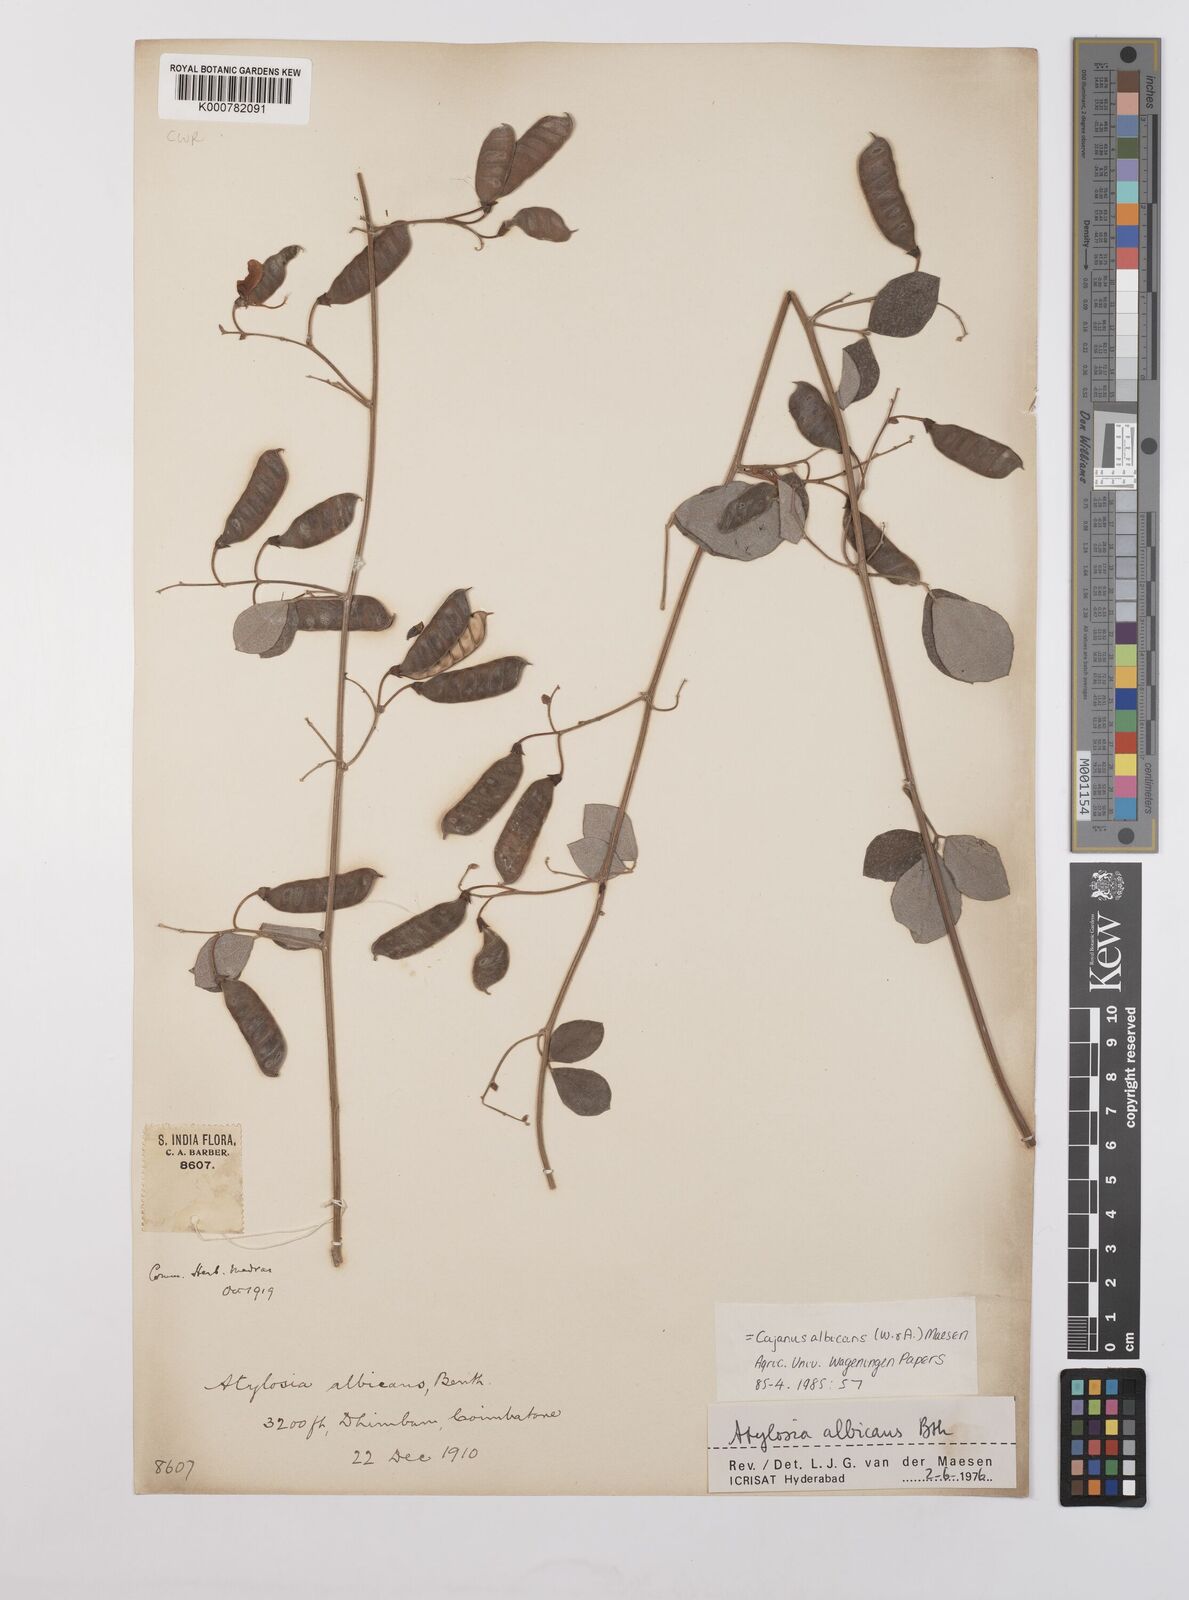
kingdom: Plantae
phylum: Tracheophyta
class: Magnoliopsida
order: Fabales
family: Fabaceae
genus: Cajanus
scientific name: Cajanus albicans
